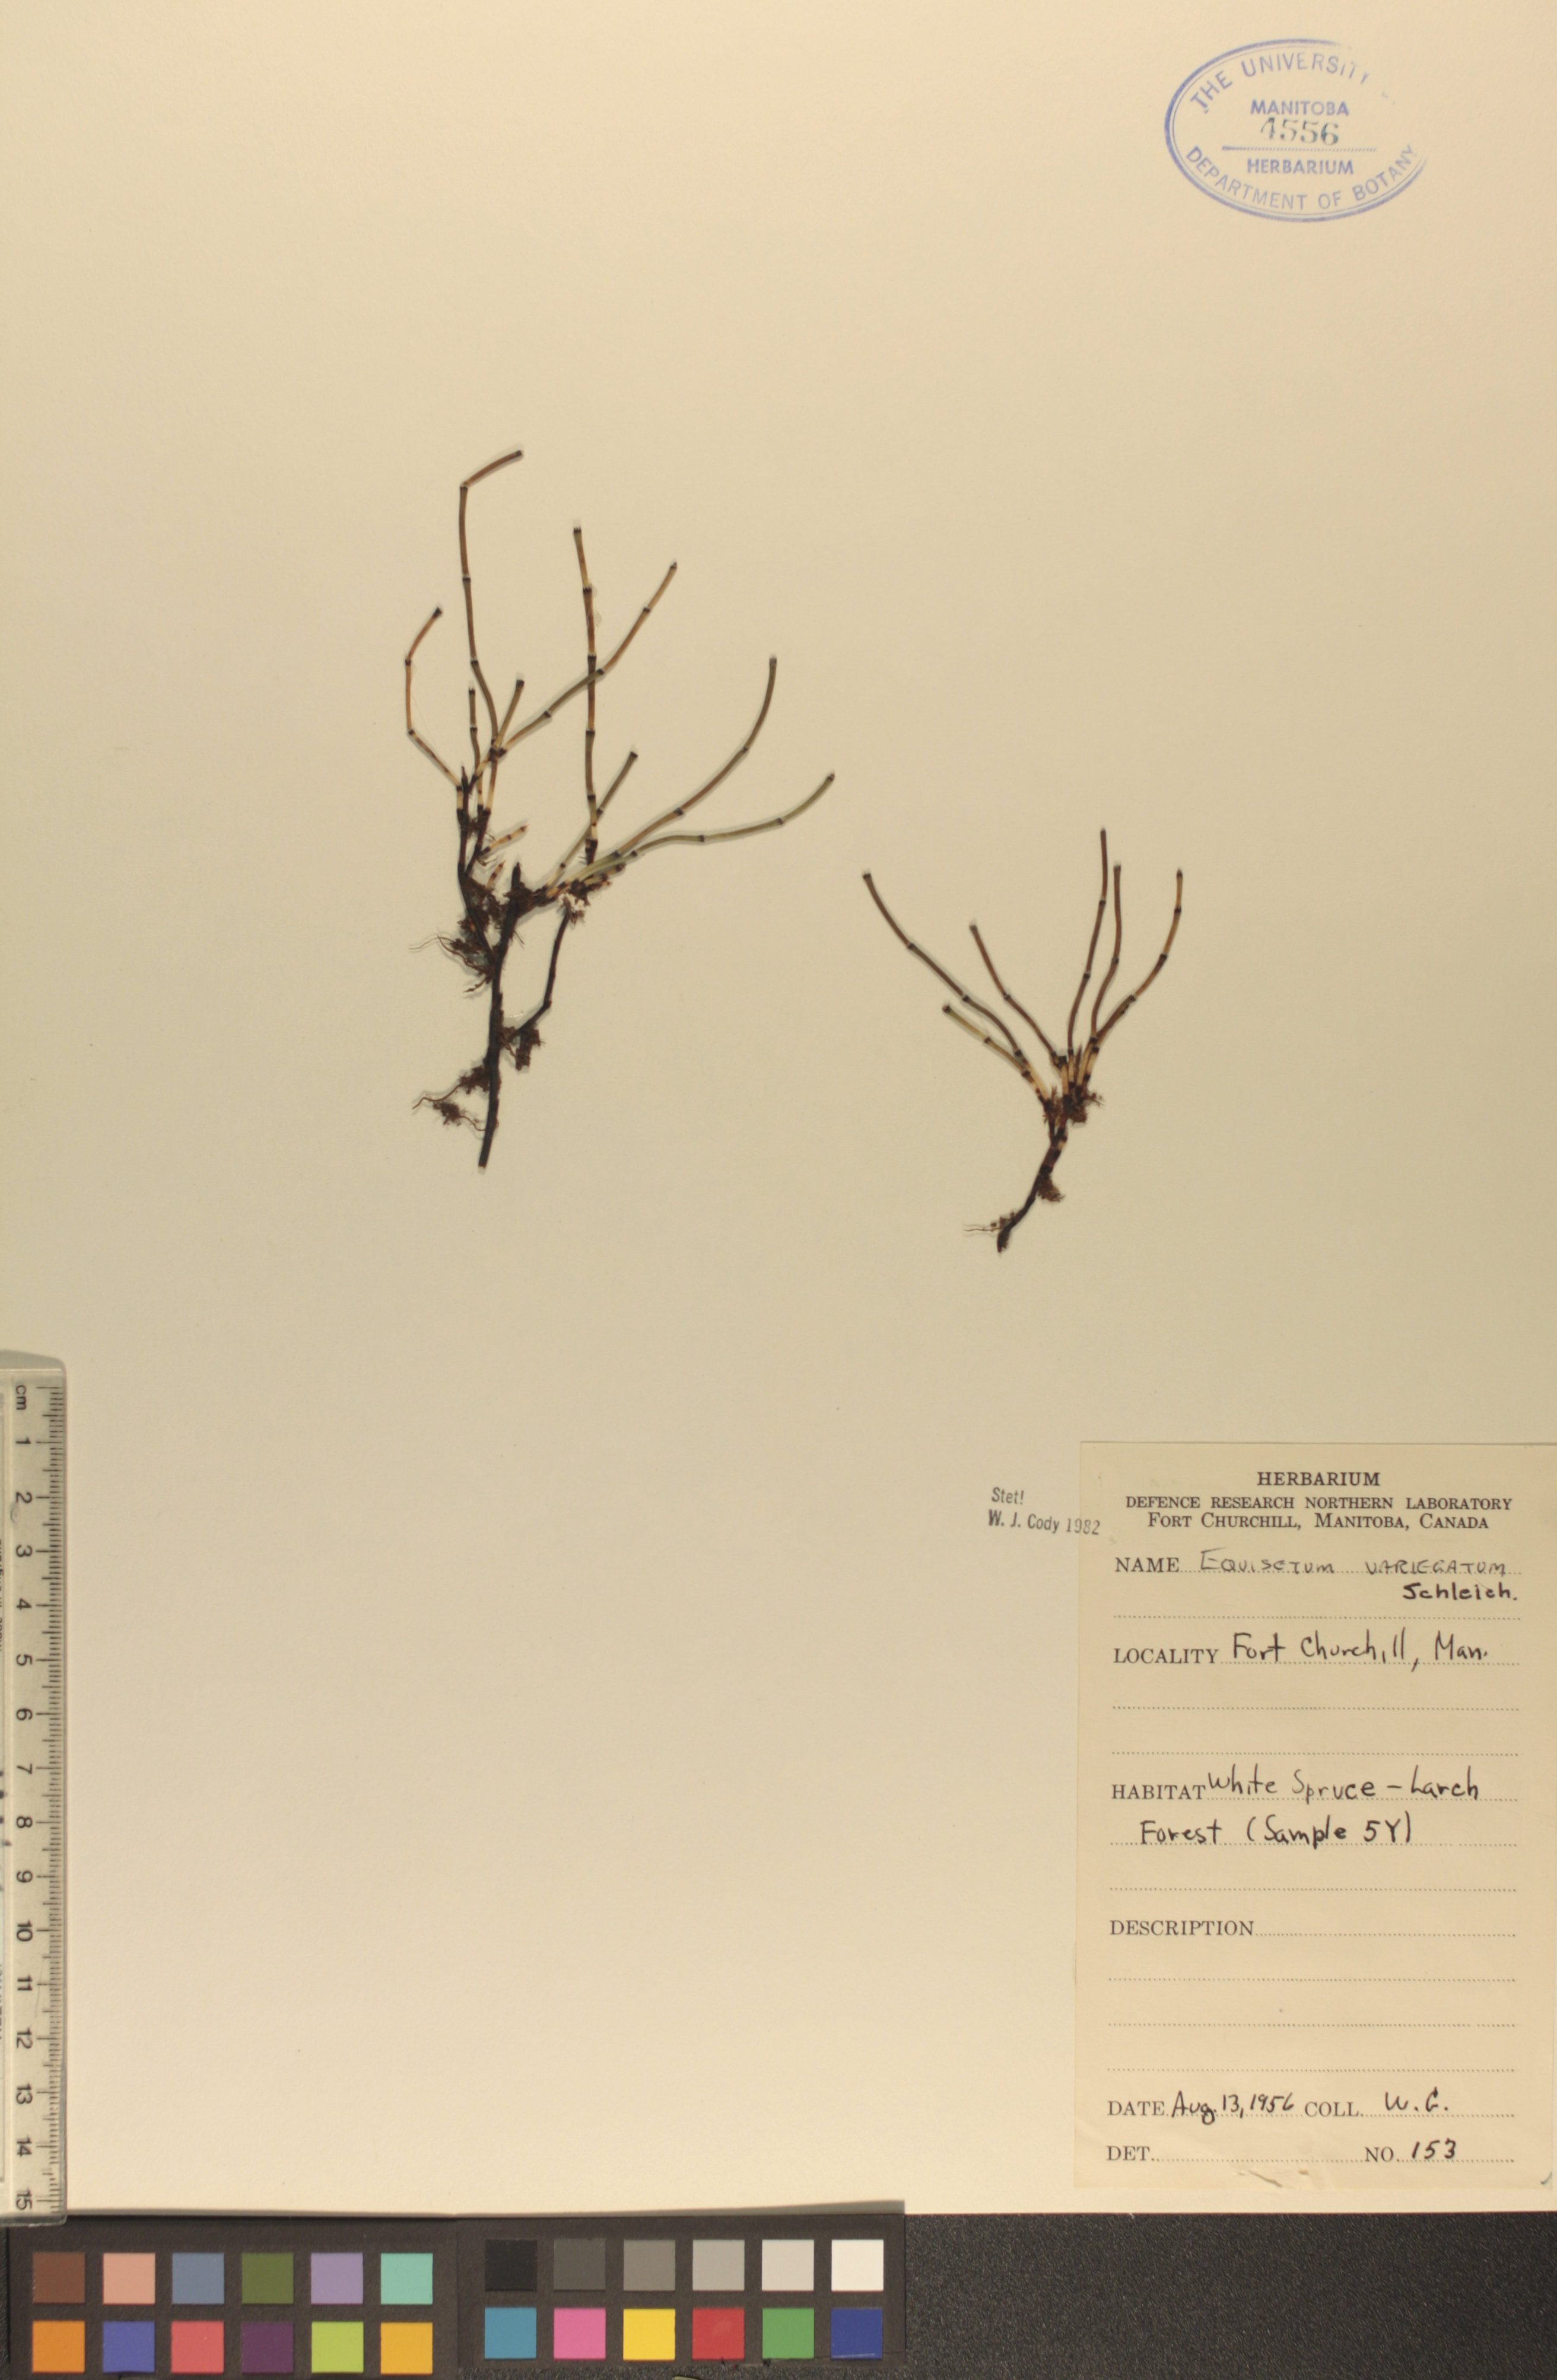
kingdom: Plantae
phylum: Tracheophyta
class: Polypodiopsida
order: Equisetales
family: Equisetaceae
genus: Equisetum
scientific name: Equisetum variegatum
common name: Variegated horsetail
